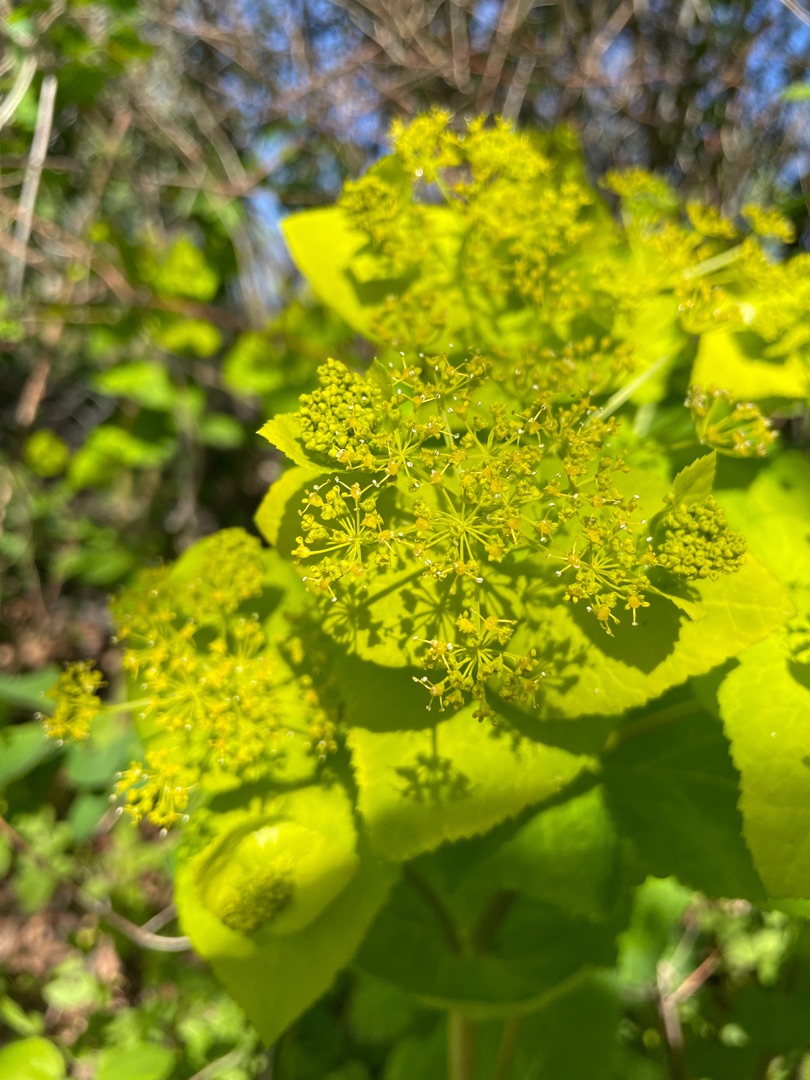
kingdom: Plantae
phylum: Tracheophyta
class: Magnoliopsida
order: Apiales
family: Apiaceae
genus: Smyrnium
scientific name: Smyrnium perfoliatum
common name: Lundgylden
